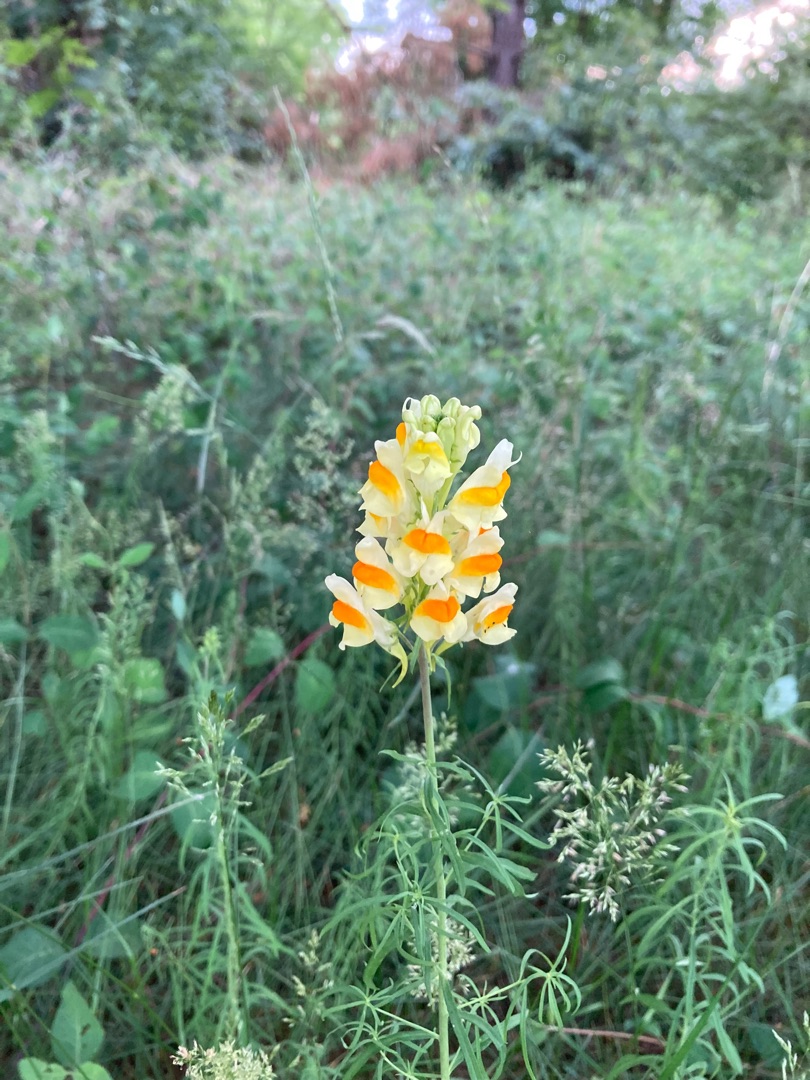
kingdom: Plantae
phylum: Tracheophyta
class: Magnoliopsida
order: Lamiales
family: Plantaginaceae
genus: Linaria
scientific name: Linaria vulgaris
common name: Almindelig torskemund
